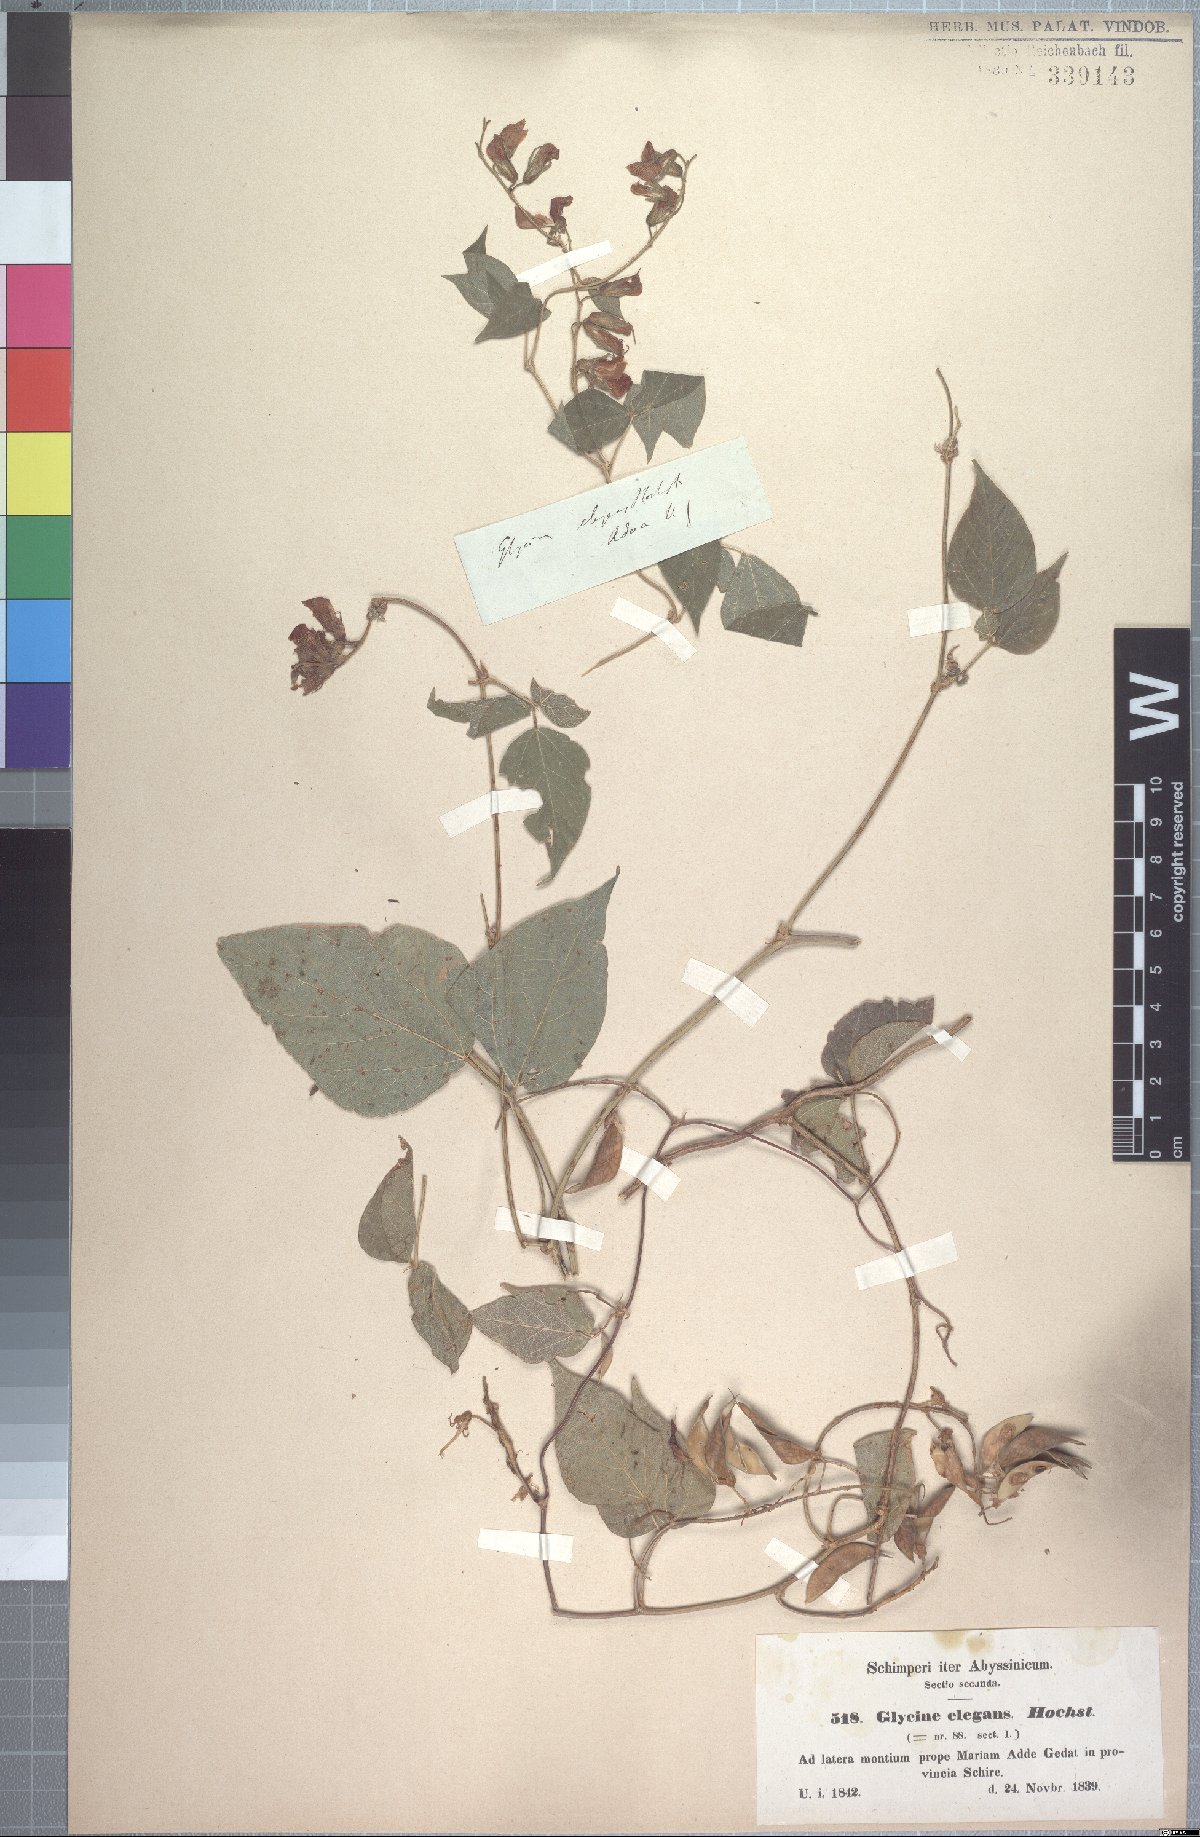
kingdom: Plantae
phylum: Tracheophyta
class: Magnoliopsida
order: Fabales
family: Fabaceae
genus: Rhynchosia
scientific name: Rhynchosia elegans
